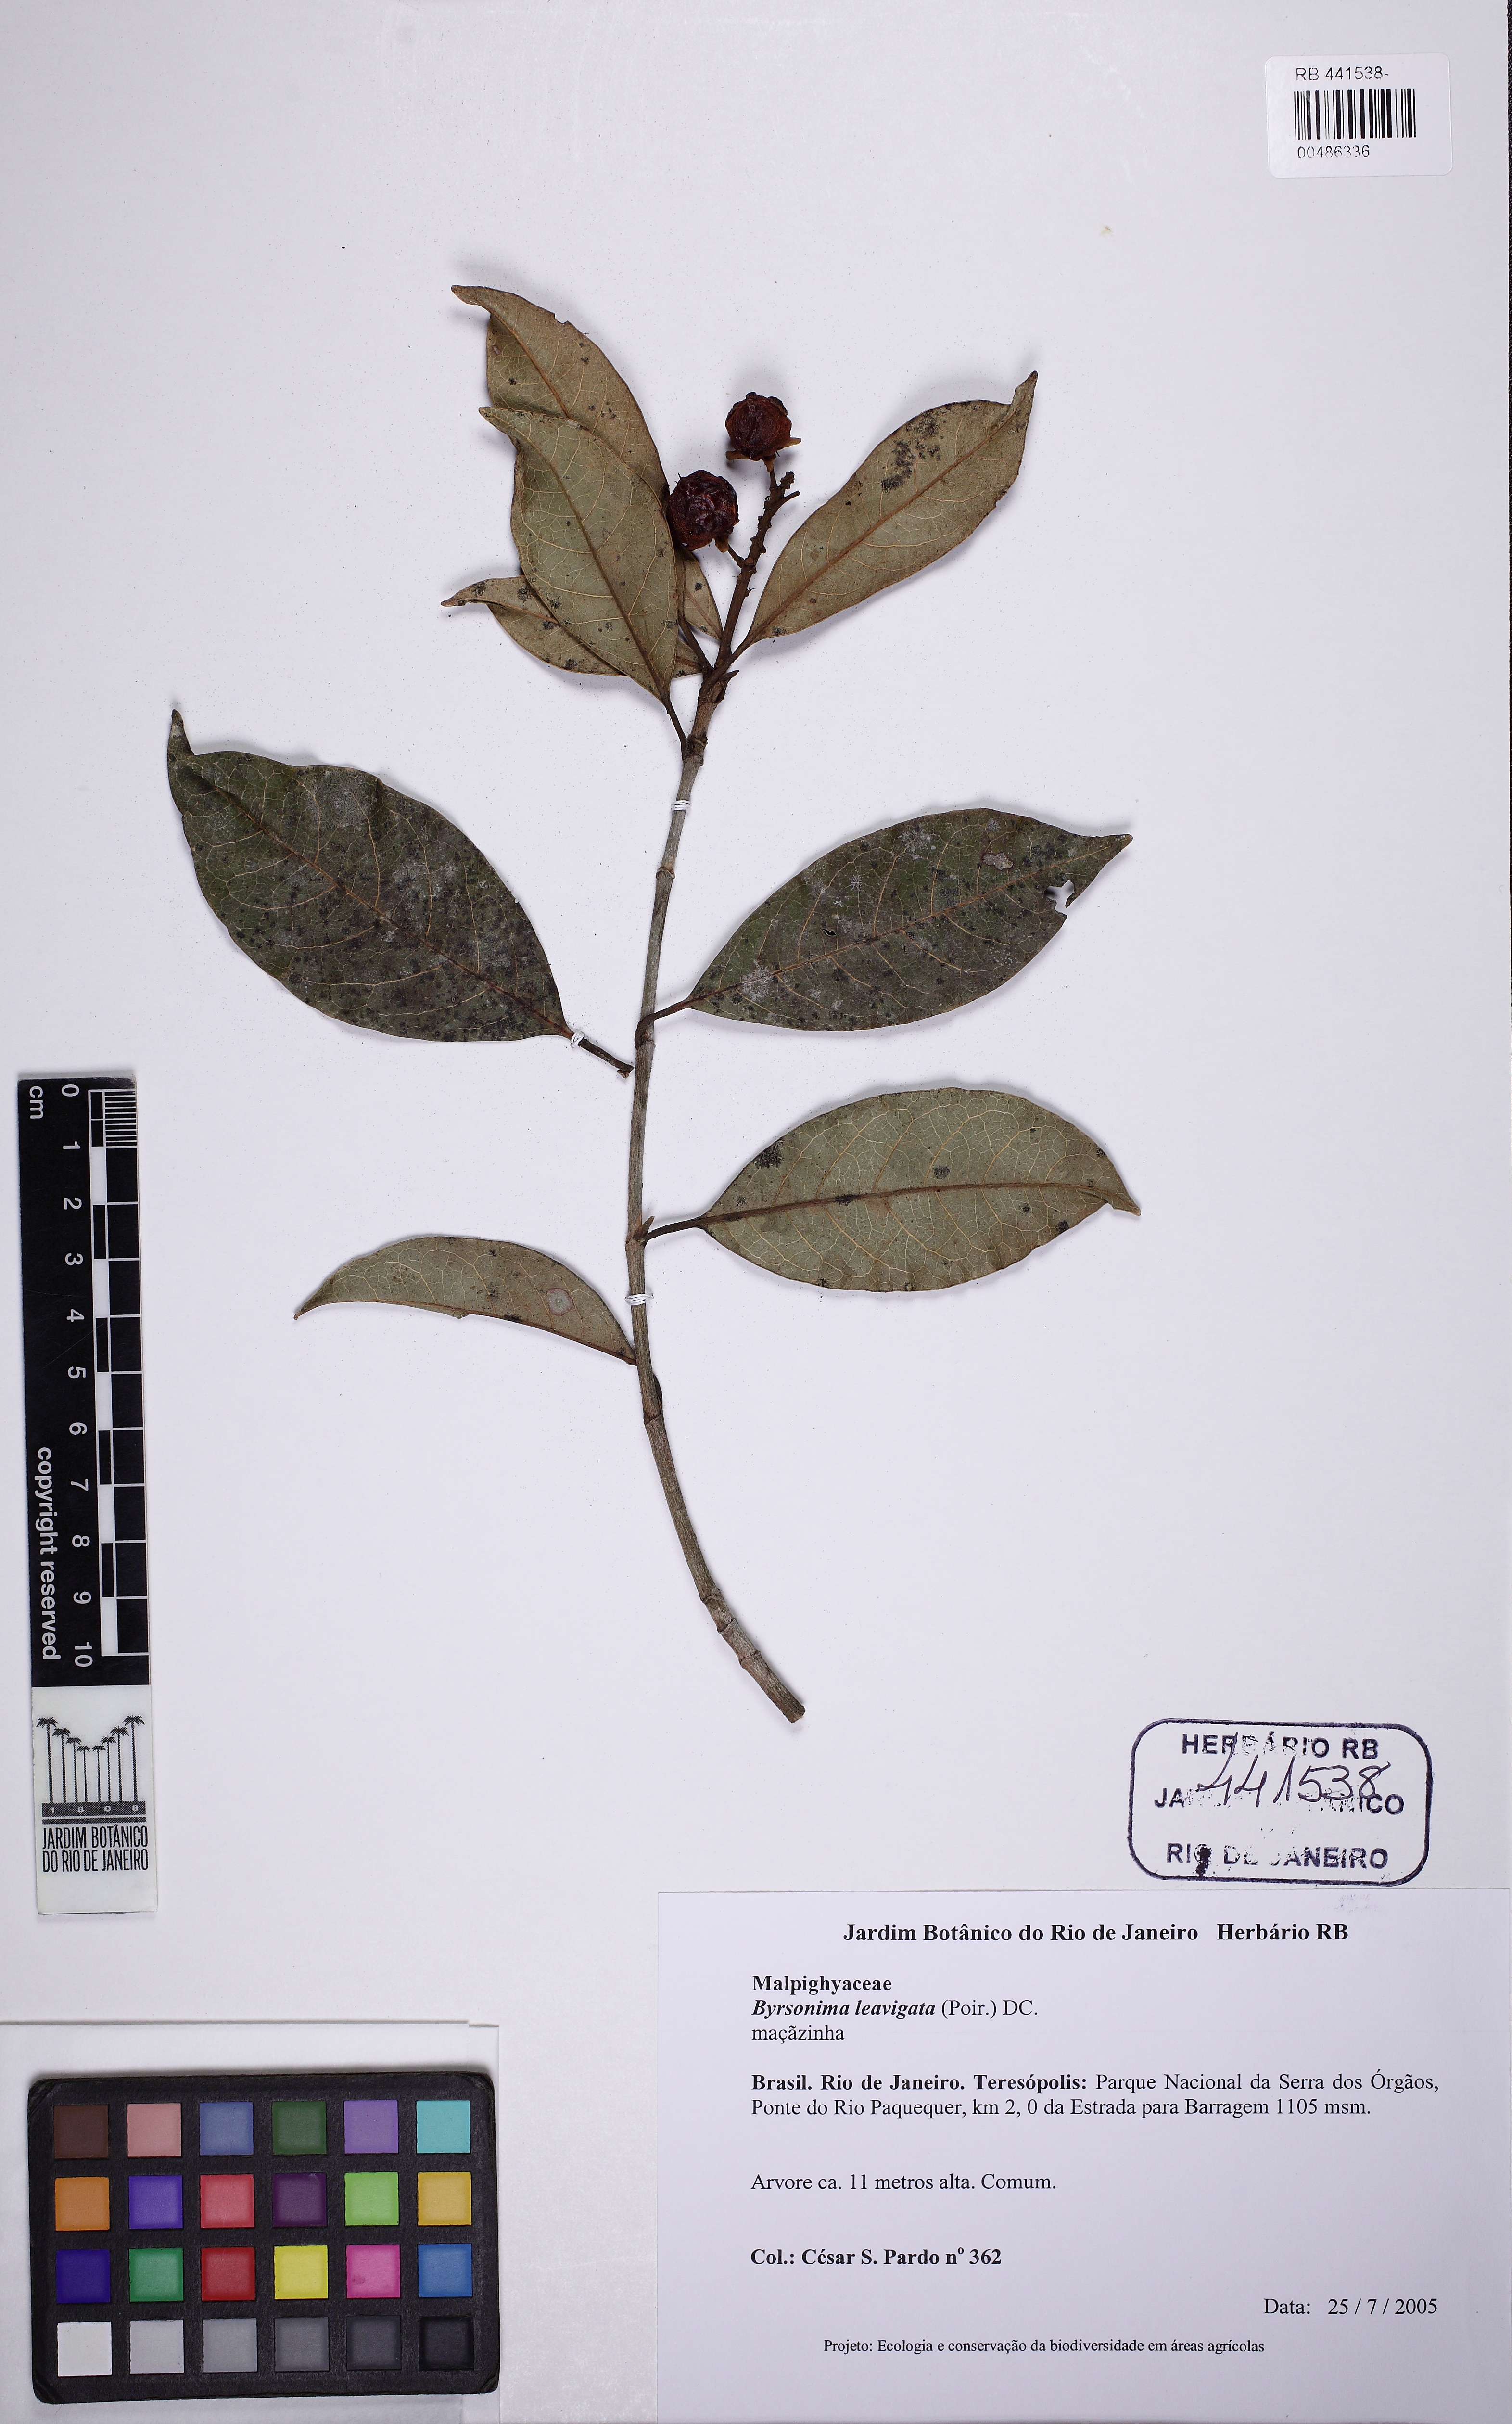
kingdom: Plantae
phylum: Tracheophyta
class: Magnoliopsida
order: Malpighiales
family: Malpighiaceae
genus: Byrsonima
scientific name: Byrsonima laevigata
